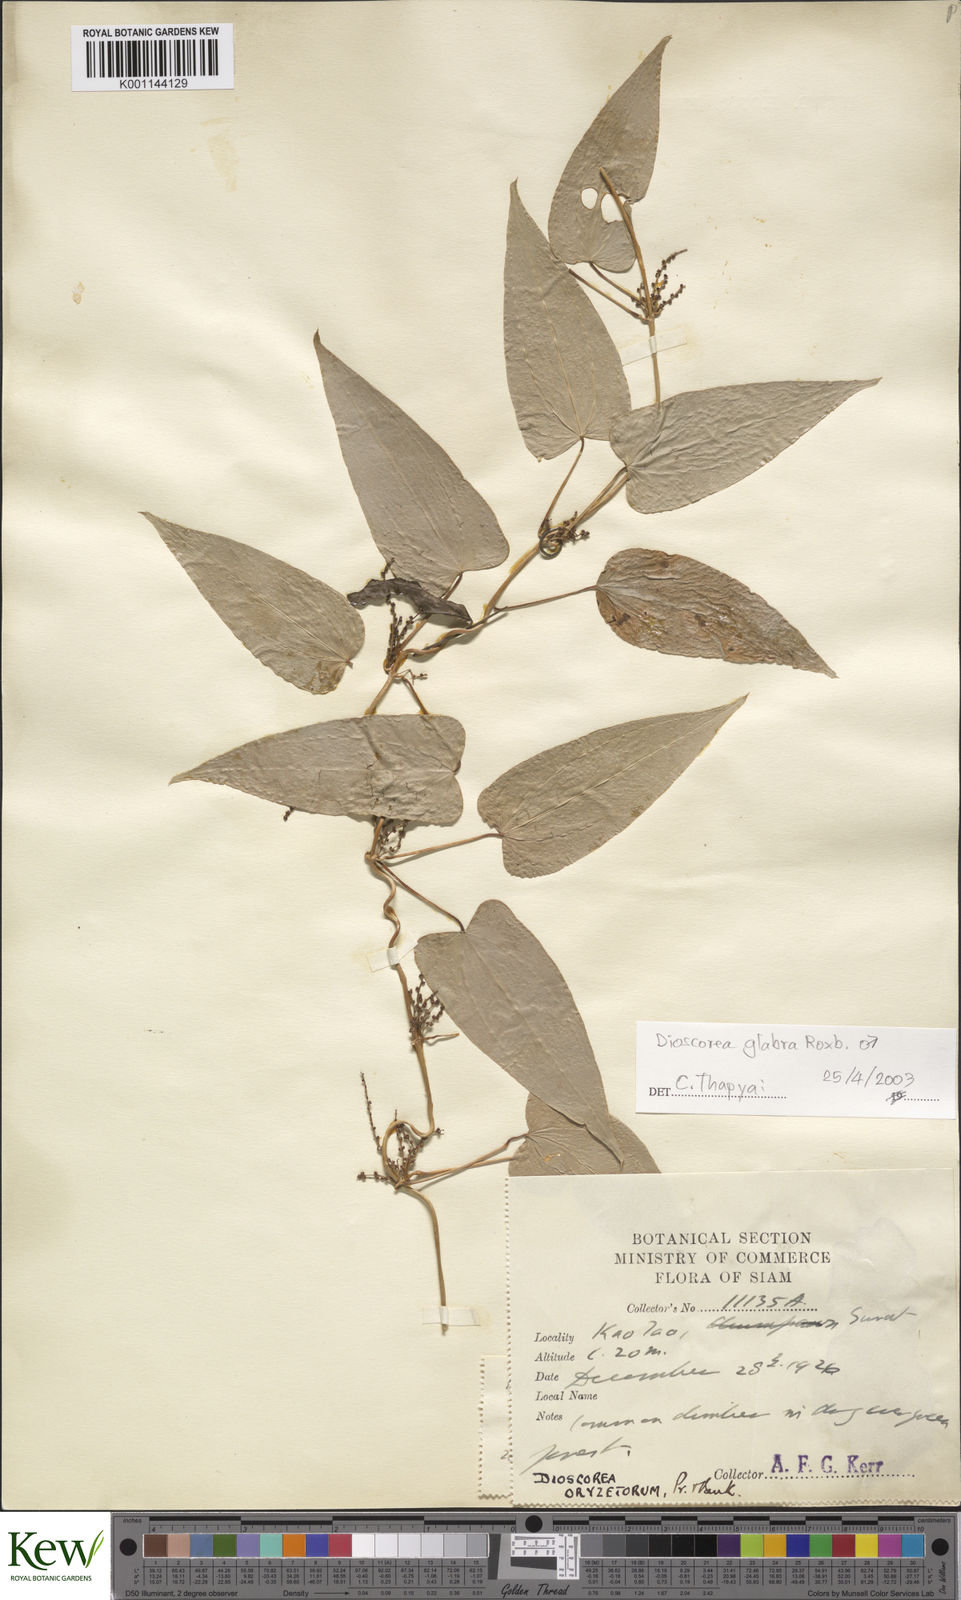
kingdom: Plantae
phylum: Tracheophyta
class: Liliopsida
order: Dioscoreales
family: Dioscoreaceae
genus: Dioscorea
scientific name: Dioscorea glabra
